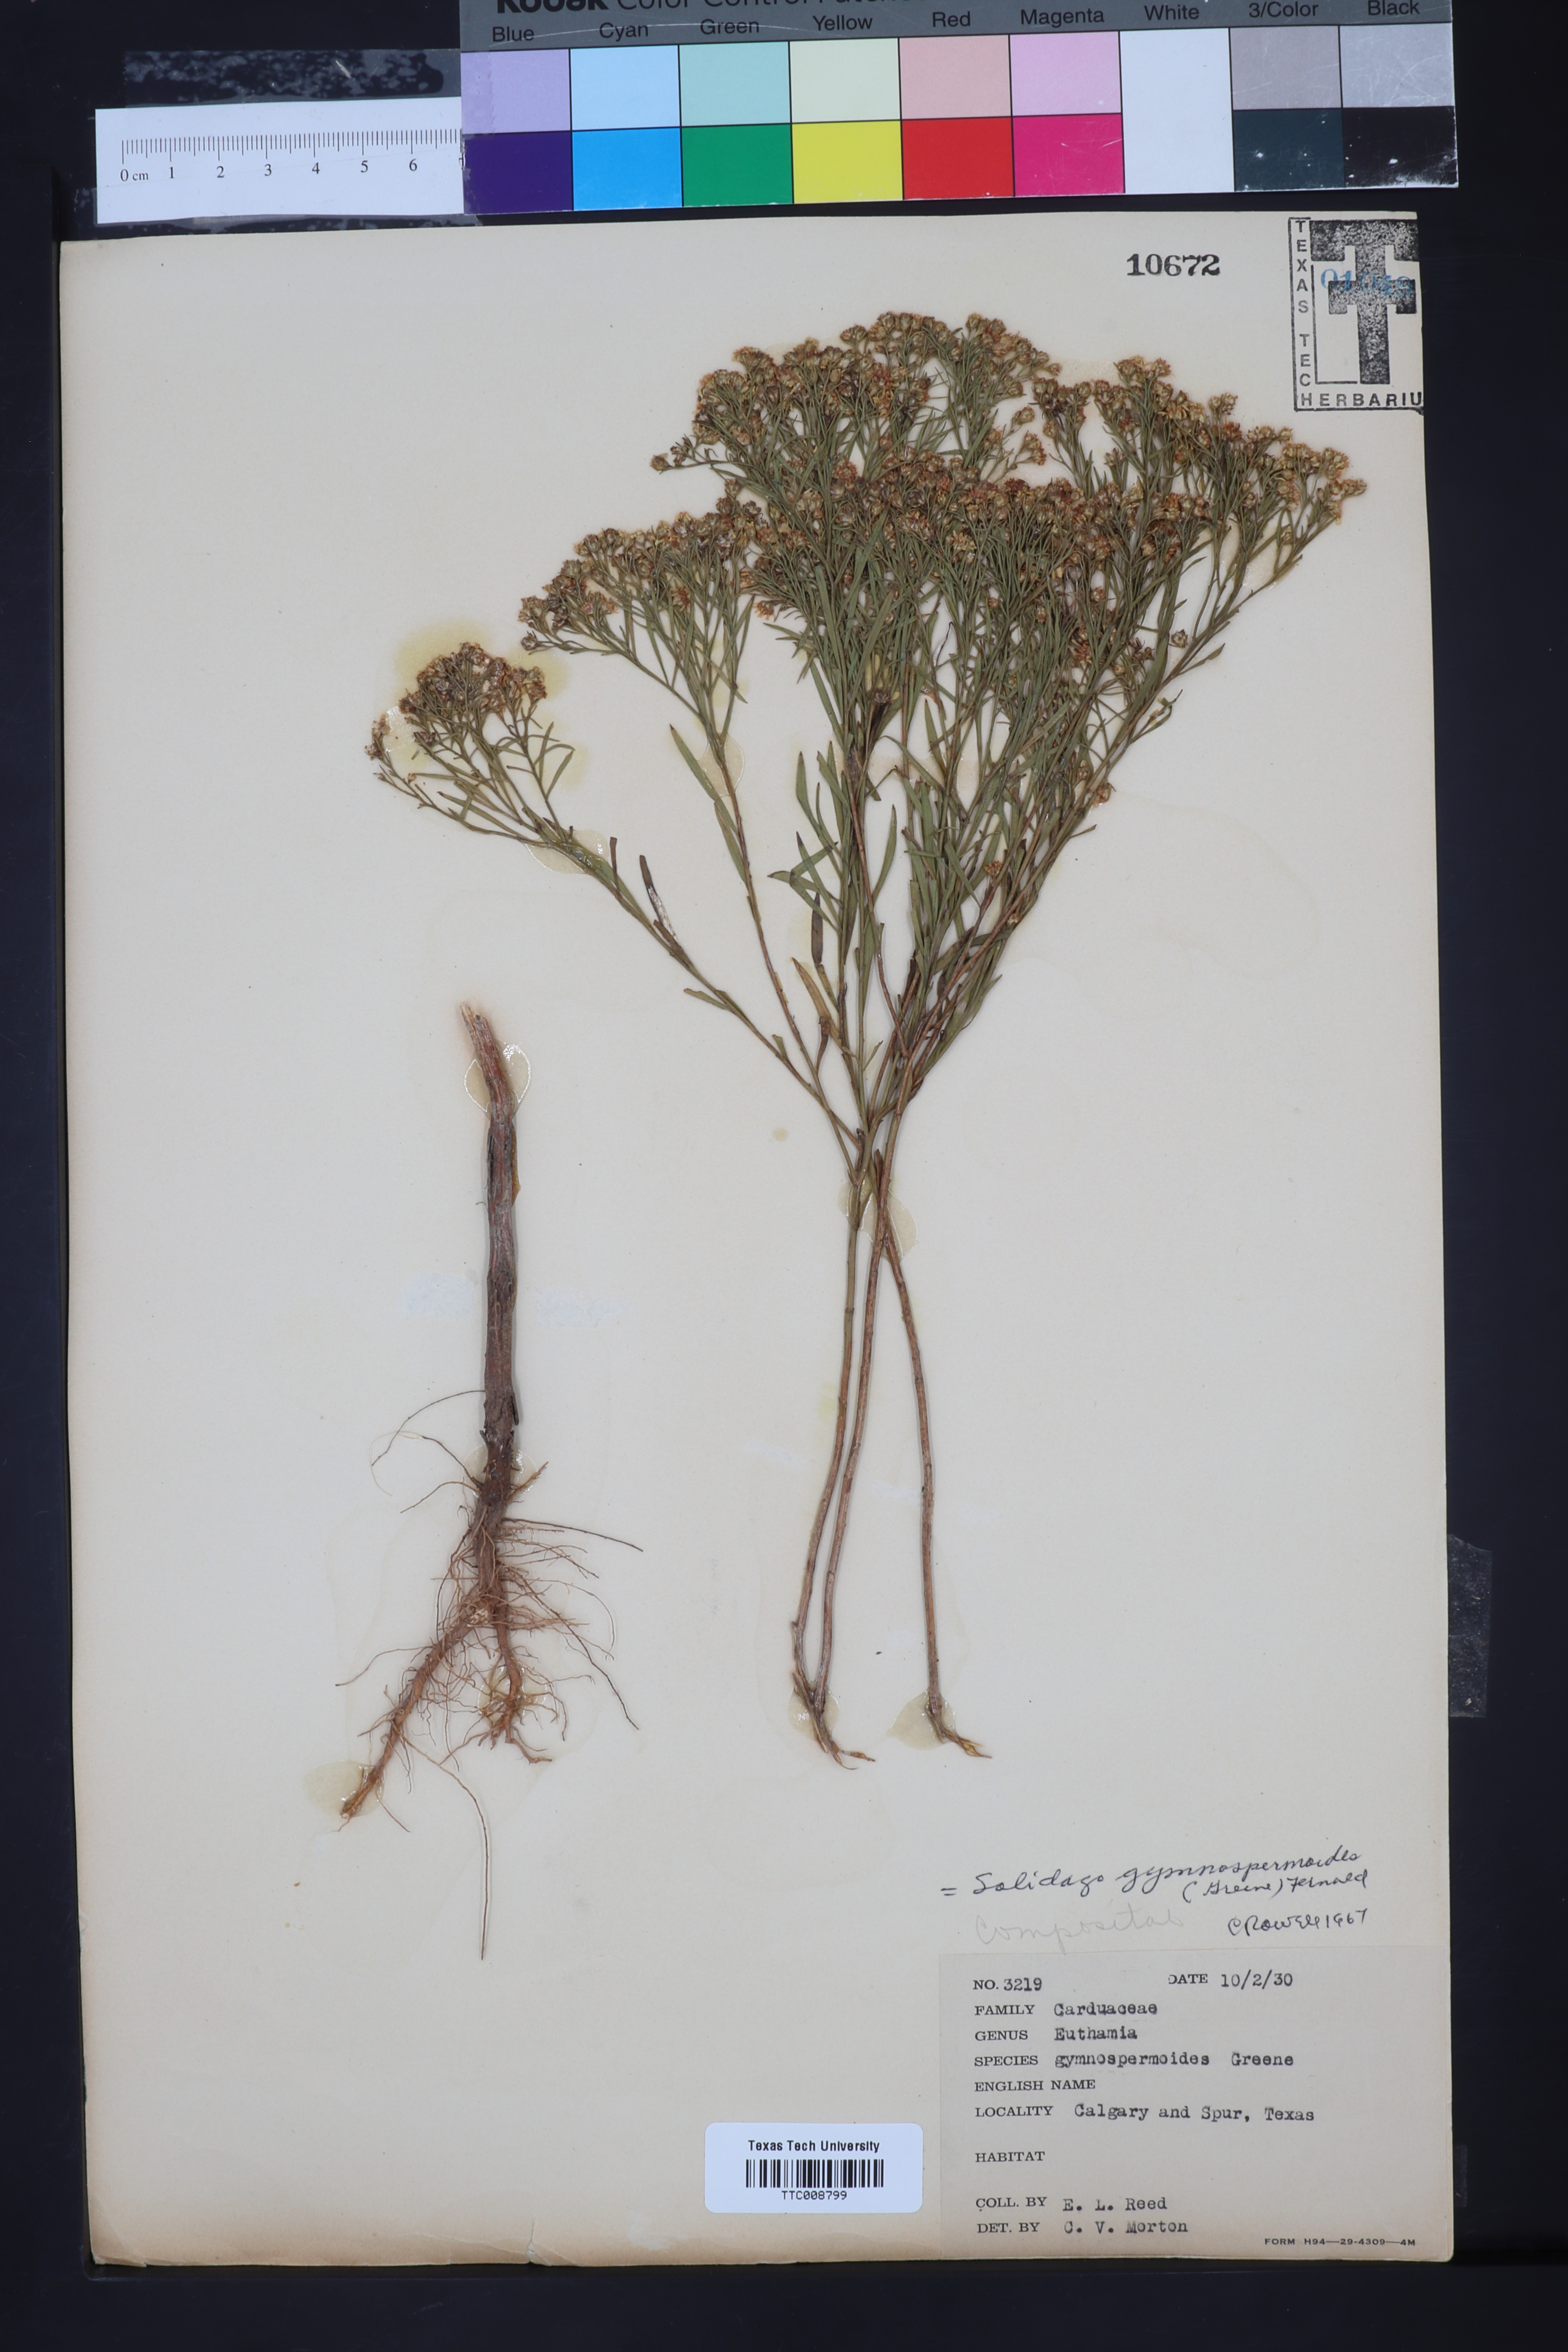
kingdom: Plantae
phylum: Tracheophyta
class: Magnoliopsida
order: Asterales
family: Asteraceae
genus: Euthamia
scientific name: Euthamia gymnospermoides
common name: Great plains goldentop
